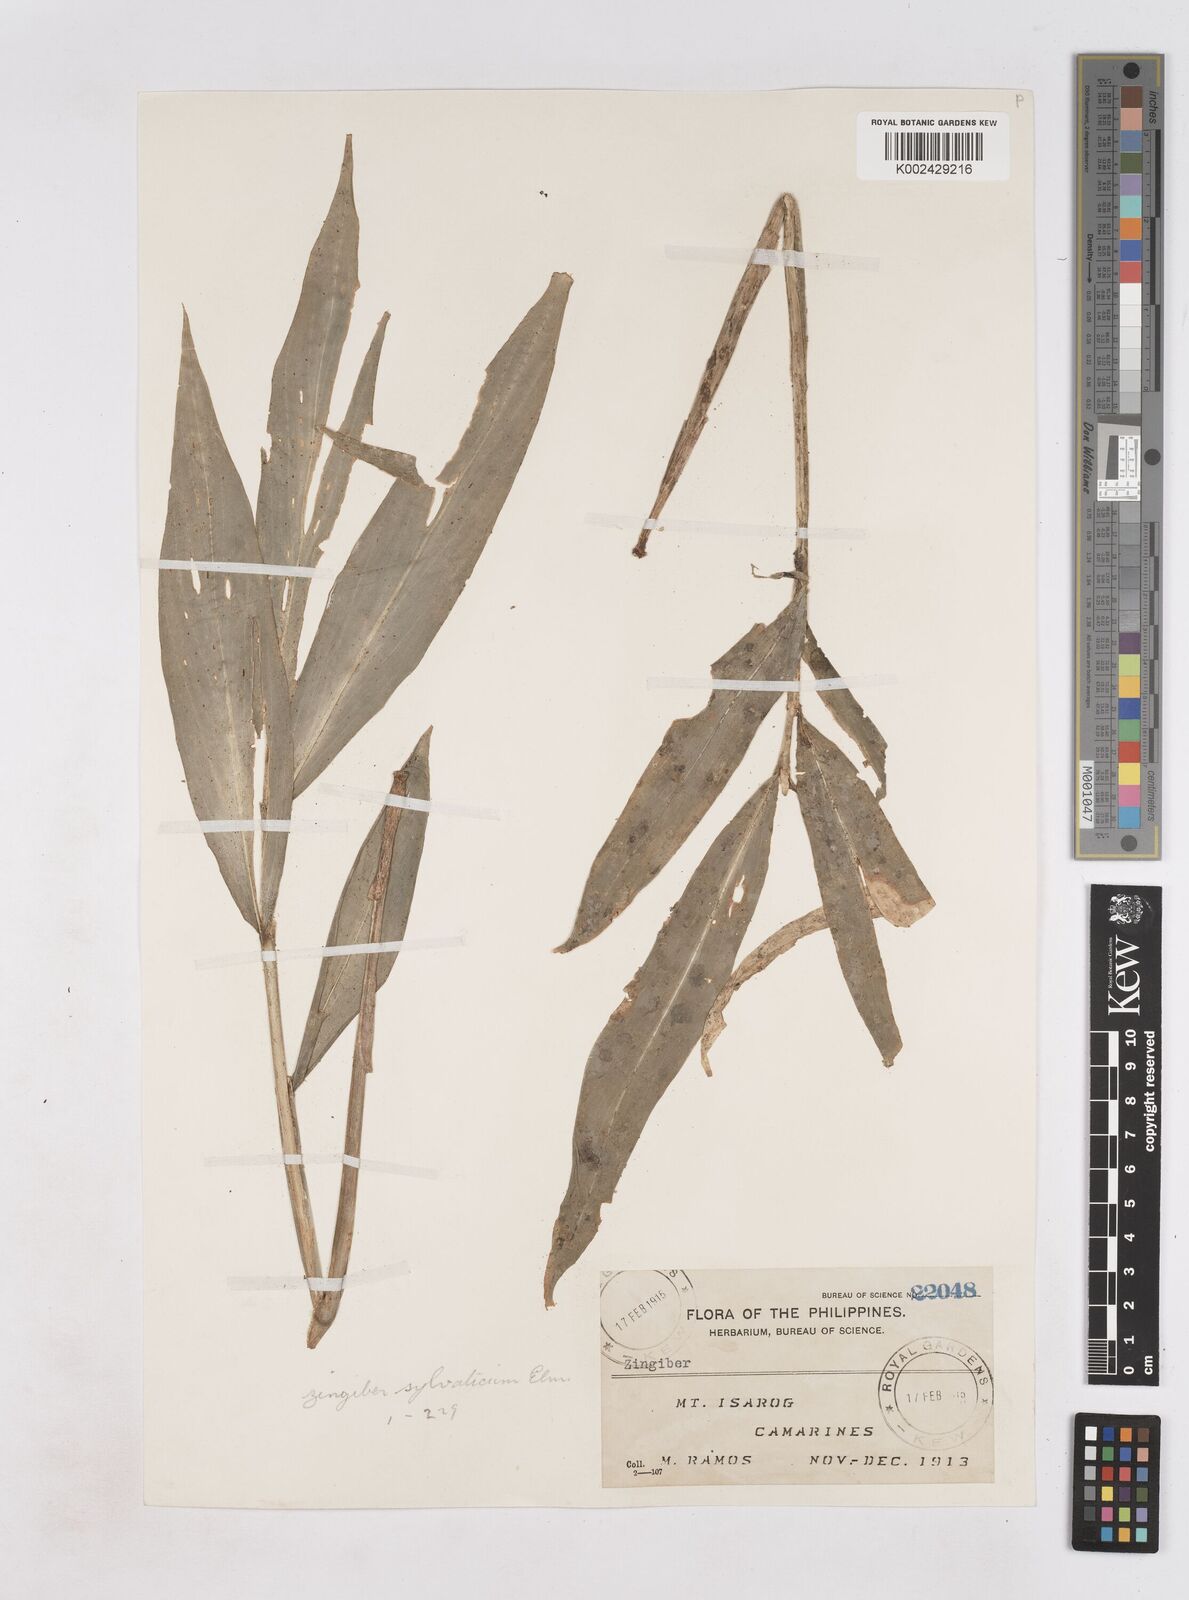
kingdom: Plantae
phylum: Tracheophyta
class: Liliopsida
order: Zingiberales
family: Zingiberaceae
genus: Zingiber
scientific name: Zingiber molle
